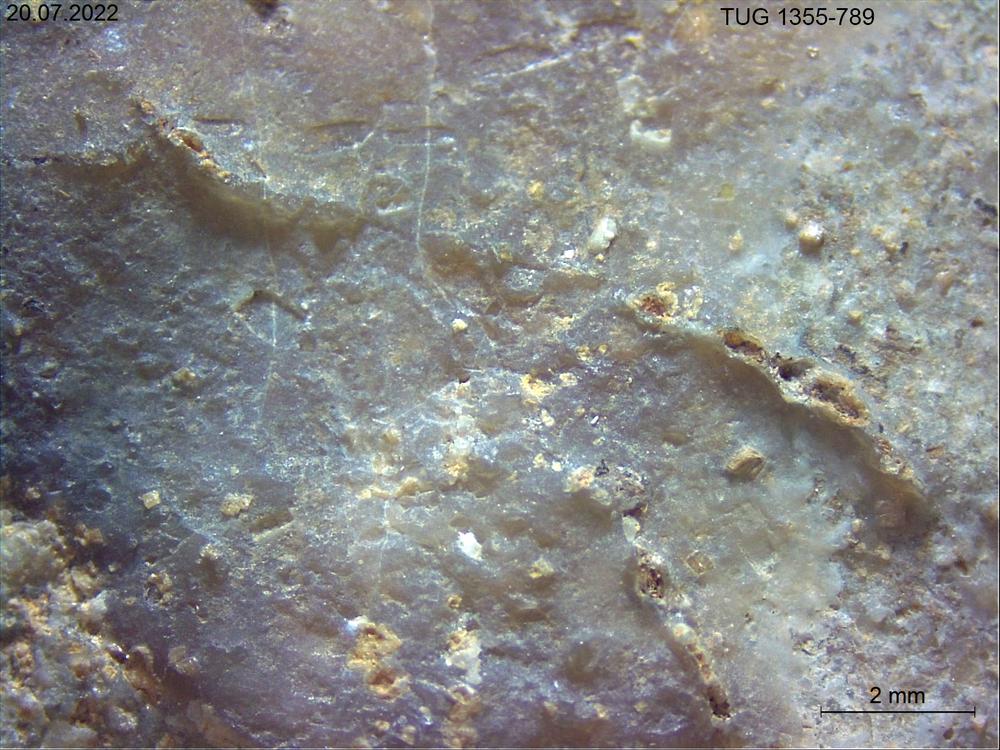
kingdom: Animalia
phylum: Bryozoa
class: Stenolaemata
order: Cyclostomatida
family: Corynotrypidae
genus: Corynotrypa
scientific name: Corynotrypa
